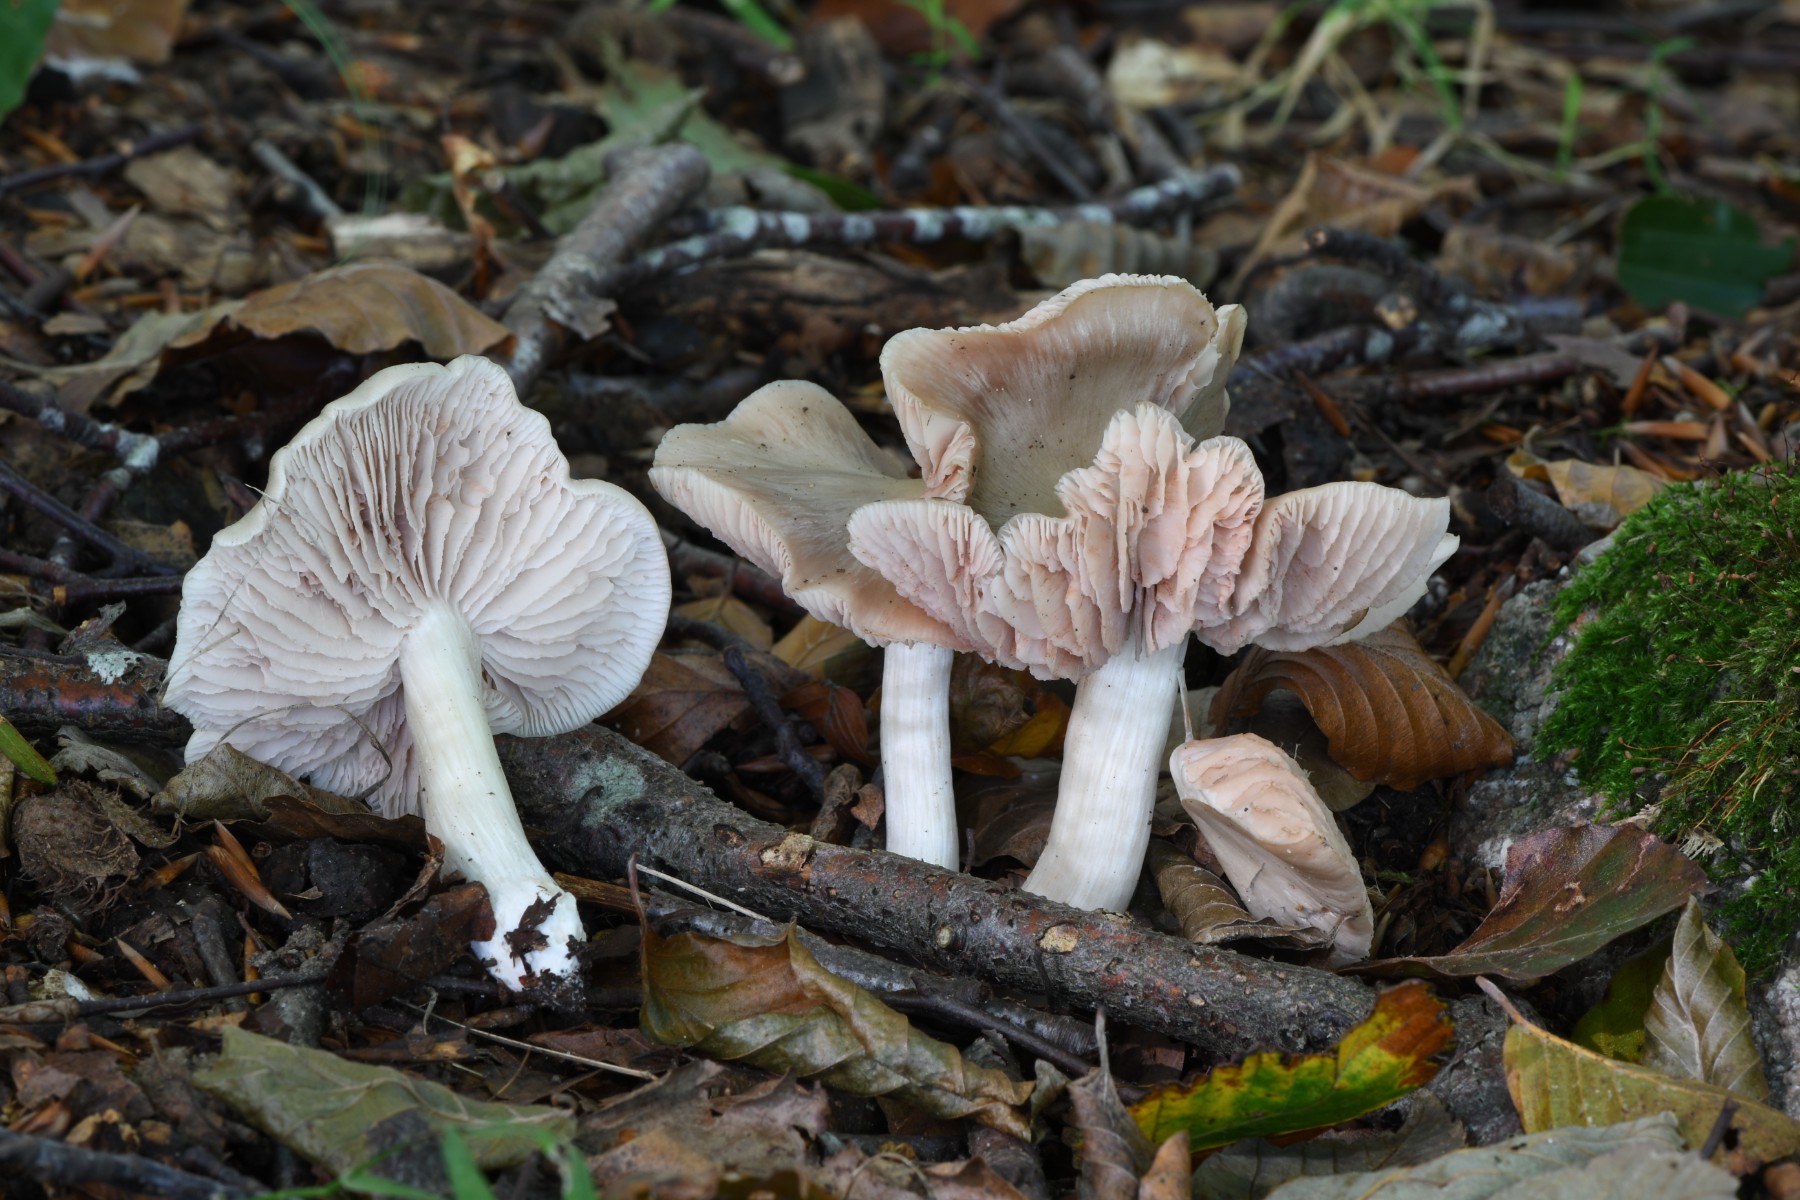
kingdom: Fungi
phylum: Basidiomycota
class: Agaricomycetes
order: Agaricales
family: Entolomataceae
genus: Entoloma
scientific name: Entoloma rhodopolium
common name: skov-rødblad
